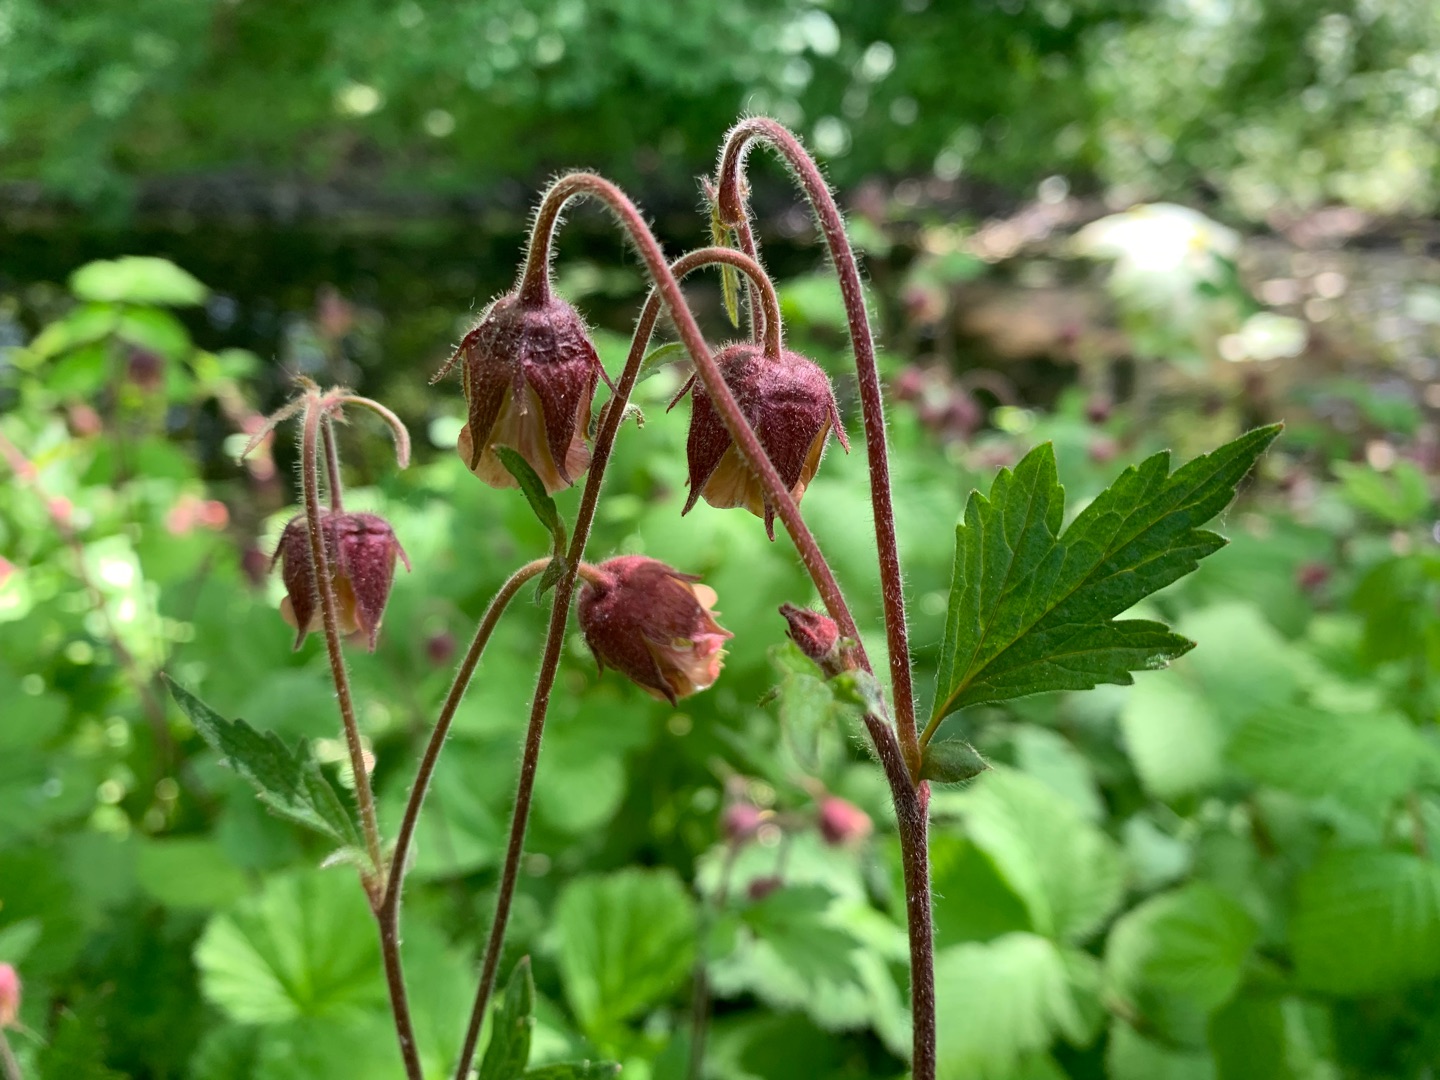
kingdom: Plantae
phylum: Tracheophyta
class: Magnoliopsida
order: Rosales
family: Rosaceae
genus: Geum
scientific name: Geum rivale
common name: Eng-nellikerod
